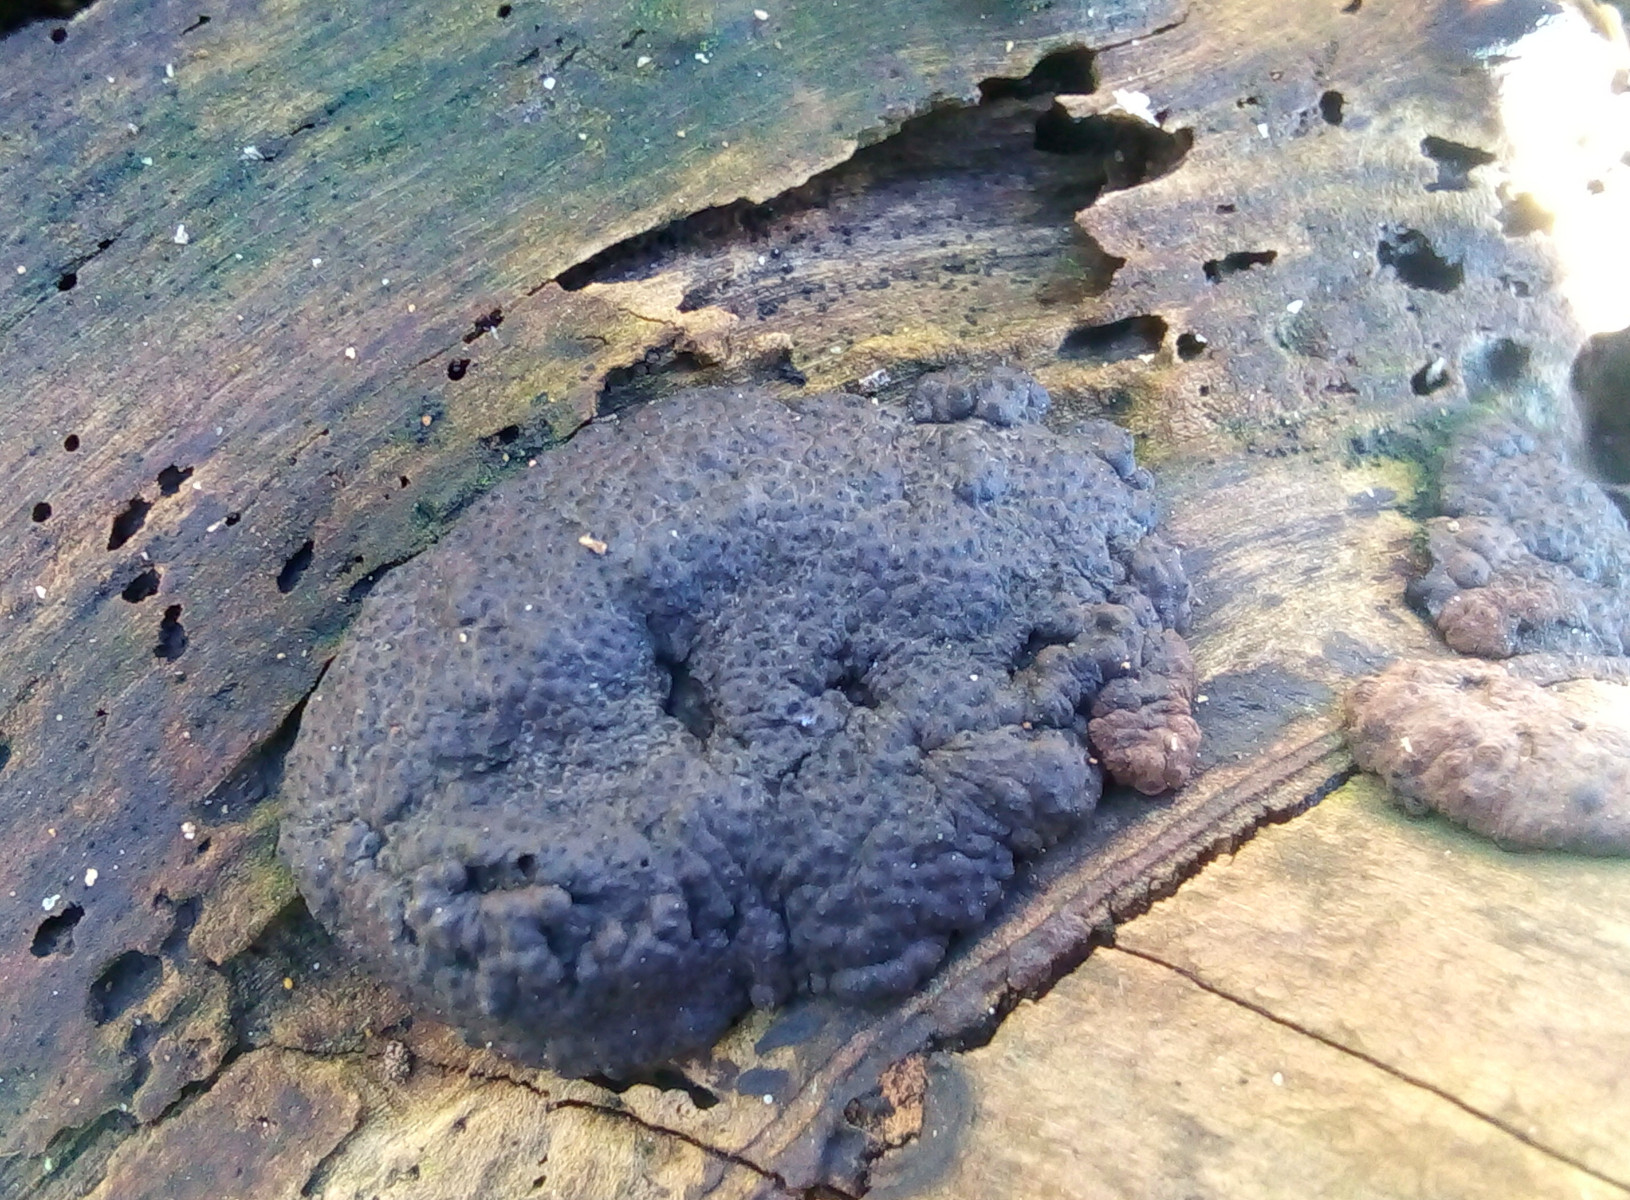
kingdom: Fungi
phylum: Ascomycota
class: Sordariomycetes
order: Xylariales
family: Hypoxylaceae
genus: Jackrogersella
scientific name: Jackrogersella multiformis
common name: foranderlig kulbær
